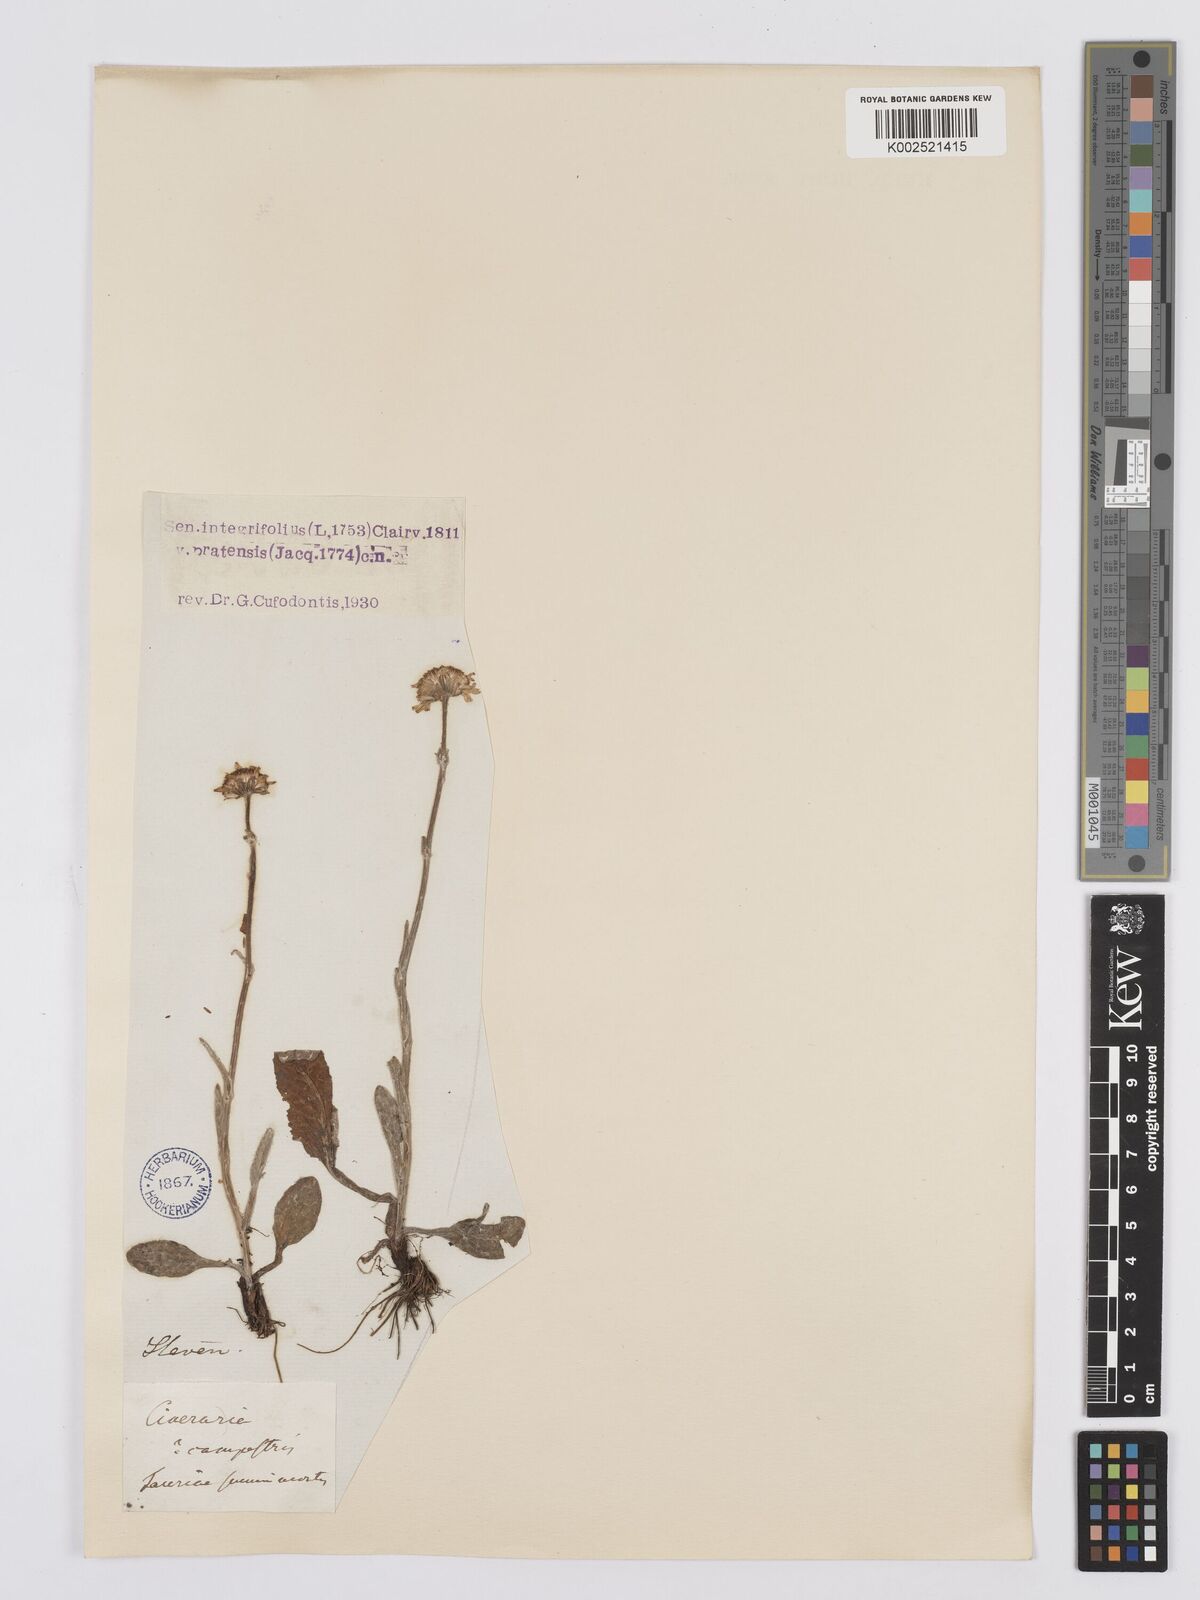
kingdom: Plantae
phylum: Tracheophyta
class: Magnoliopsida
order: Asterales
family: Asteraceae
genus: Tephroseris
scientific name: Tephroseris integrifolia
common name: Field fleawort
